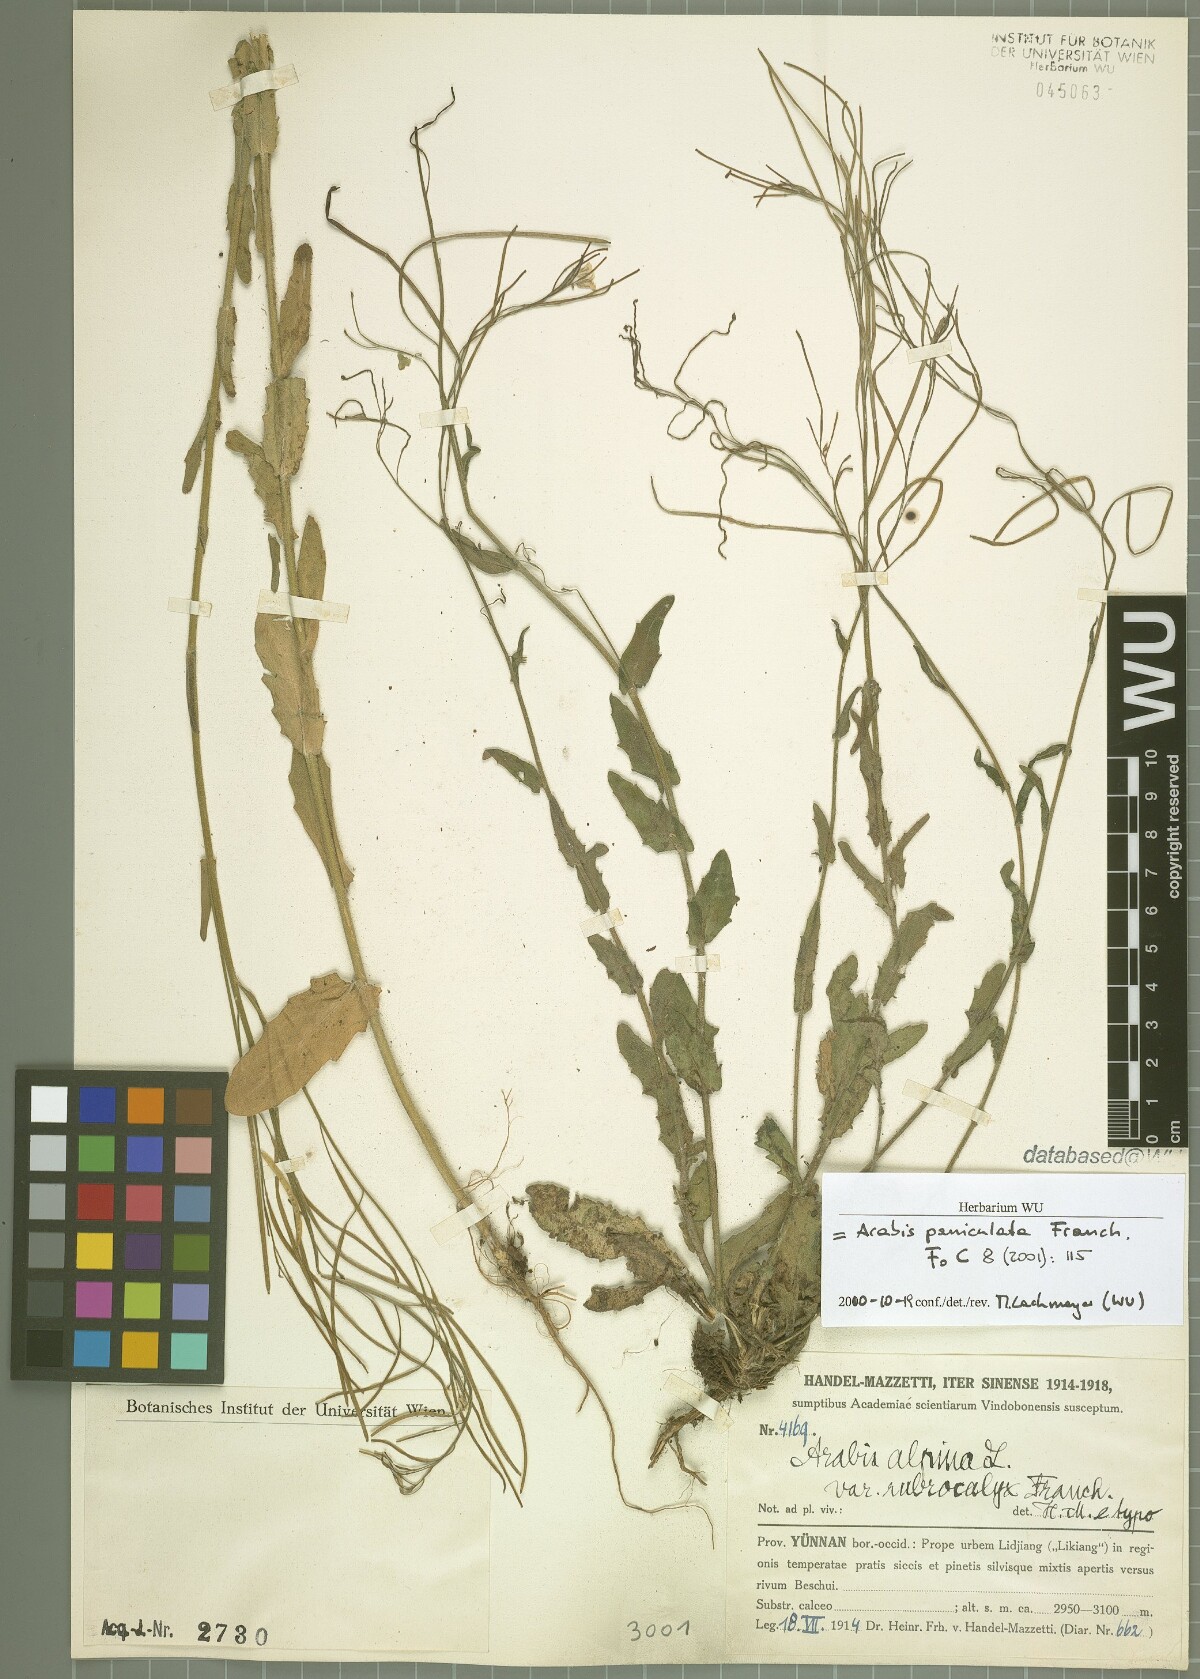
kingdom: Plantae
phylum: Tracheophyta
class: Magnoliopsida
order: Brassicales
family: Brassicaceae
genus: Arabis
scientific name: Arabis paniculata
